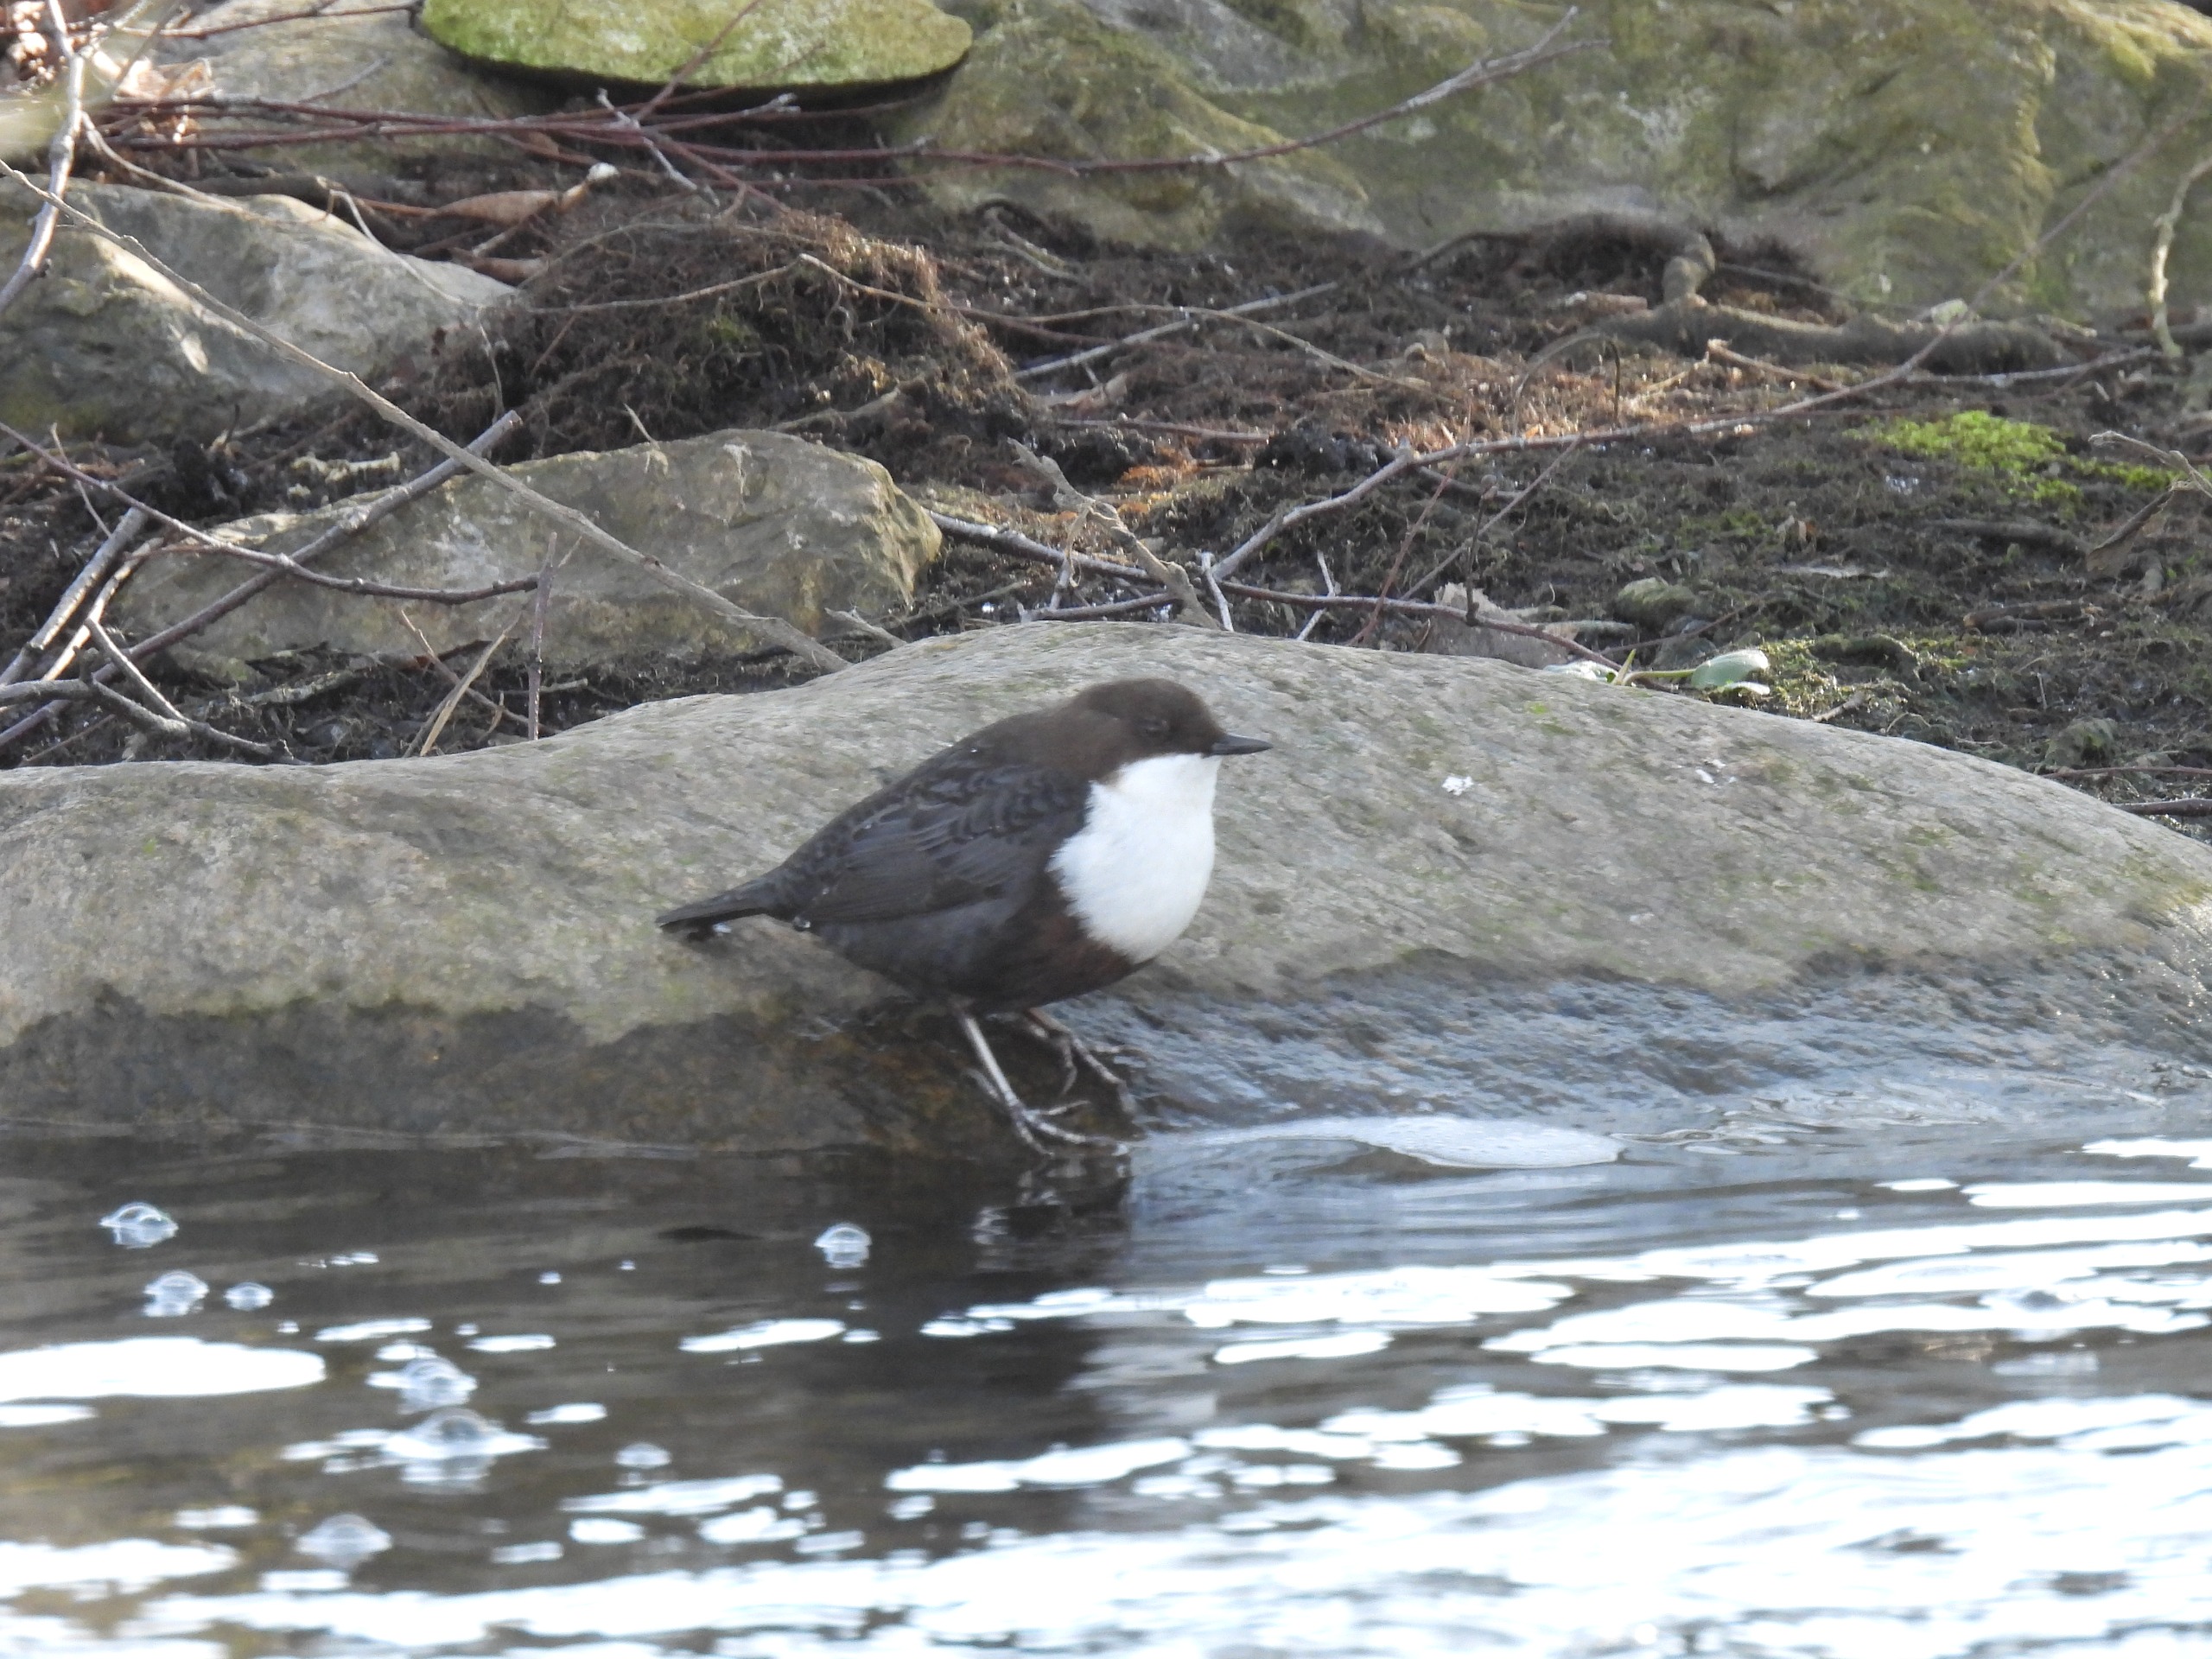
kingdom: Animalia
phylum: Chordata
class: Aves
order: Passeriformes
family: Cinclidae
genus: Cinclus
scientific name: Cinclus cinclus
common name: Vandstær
